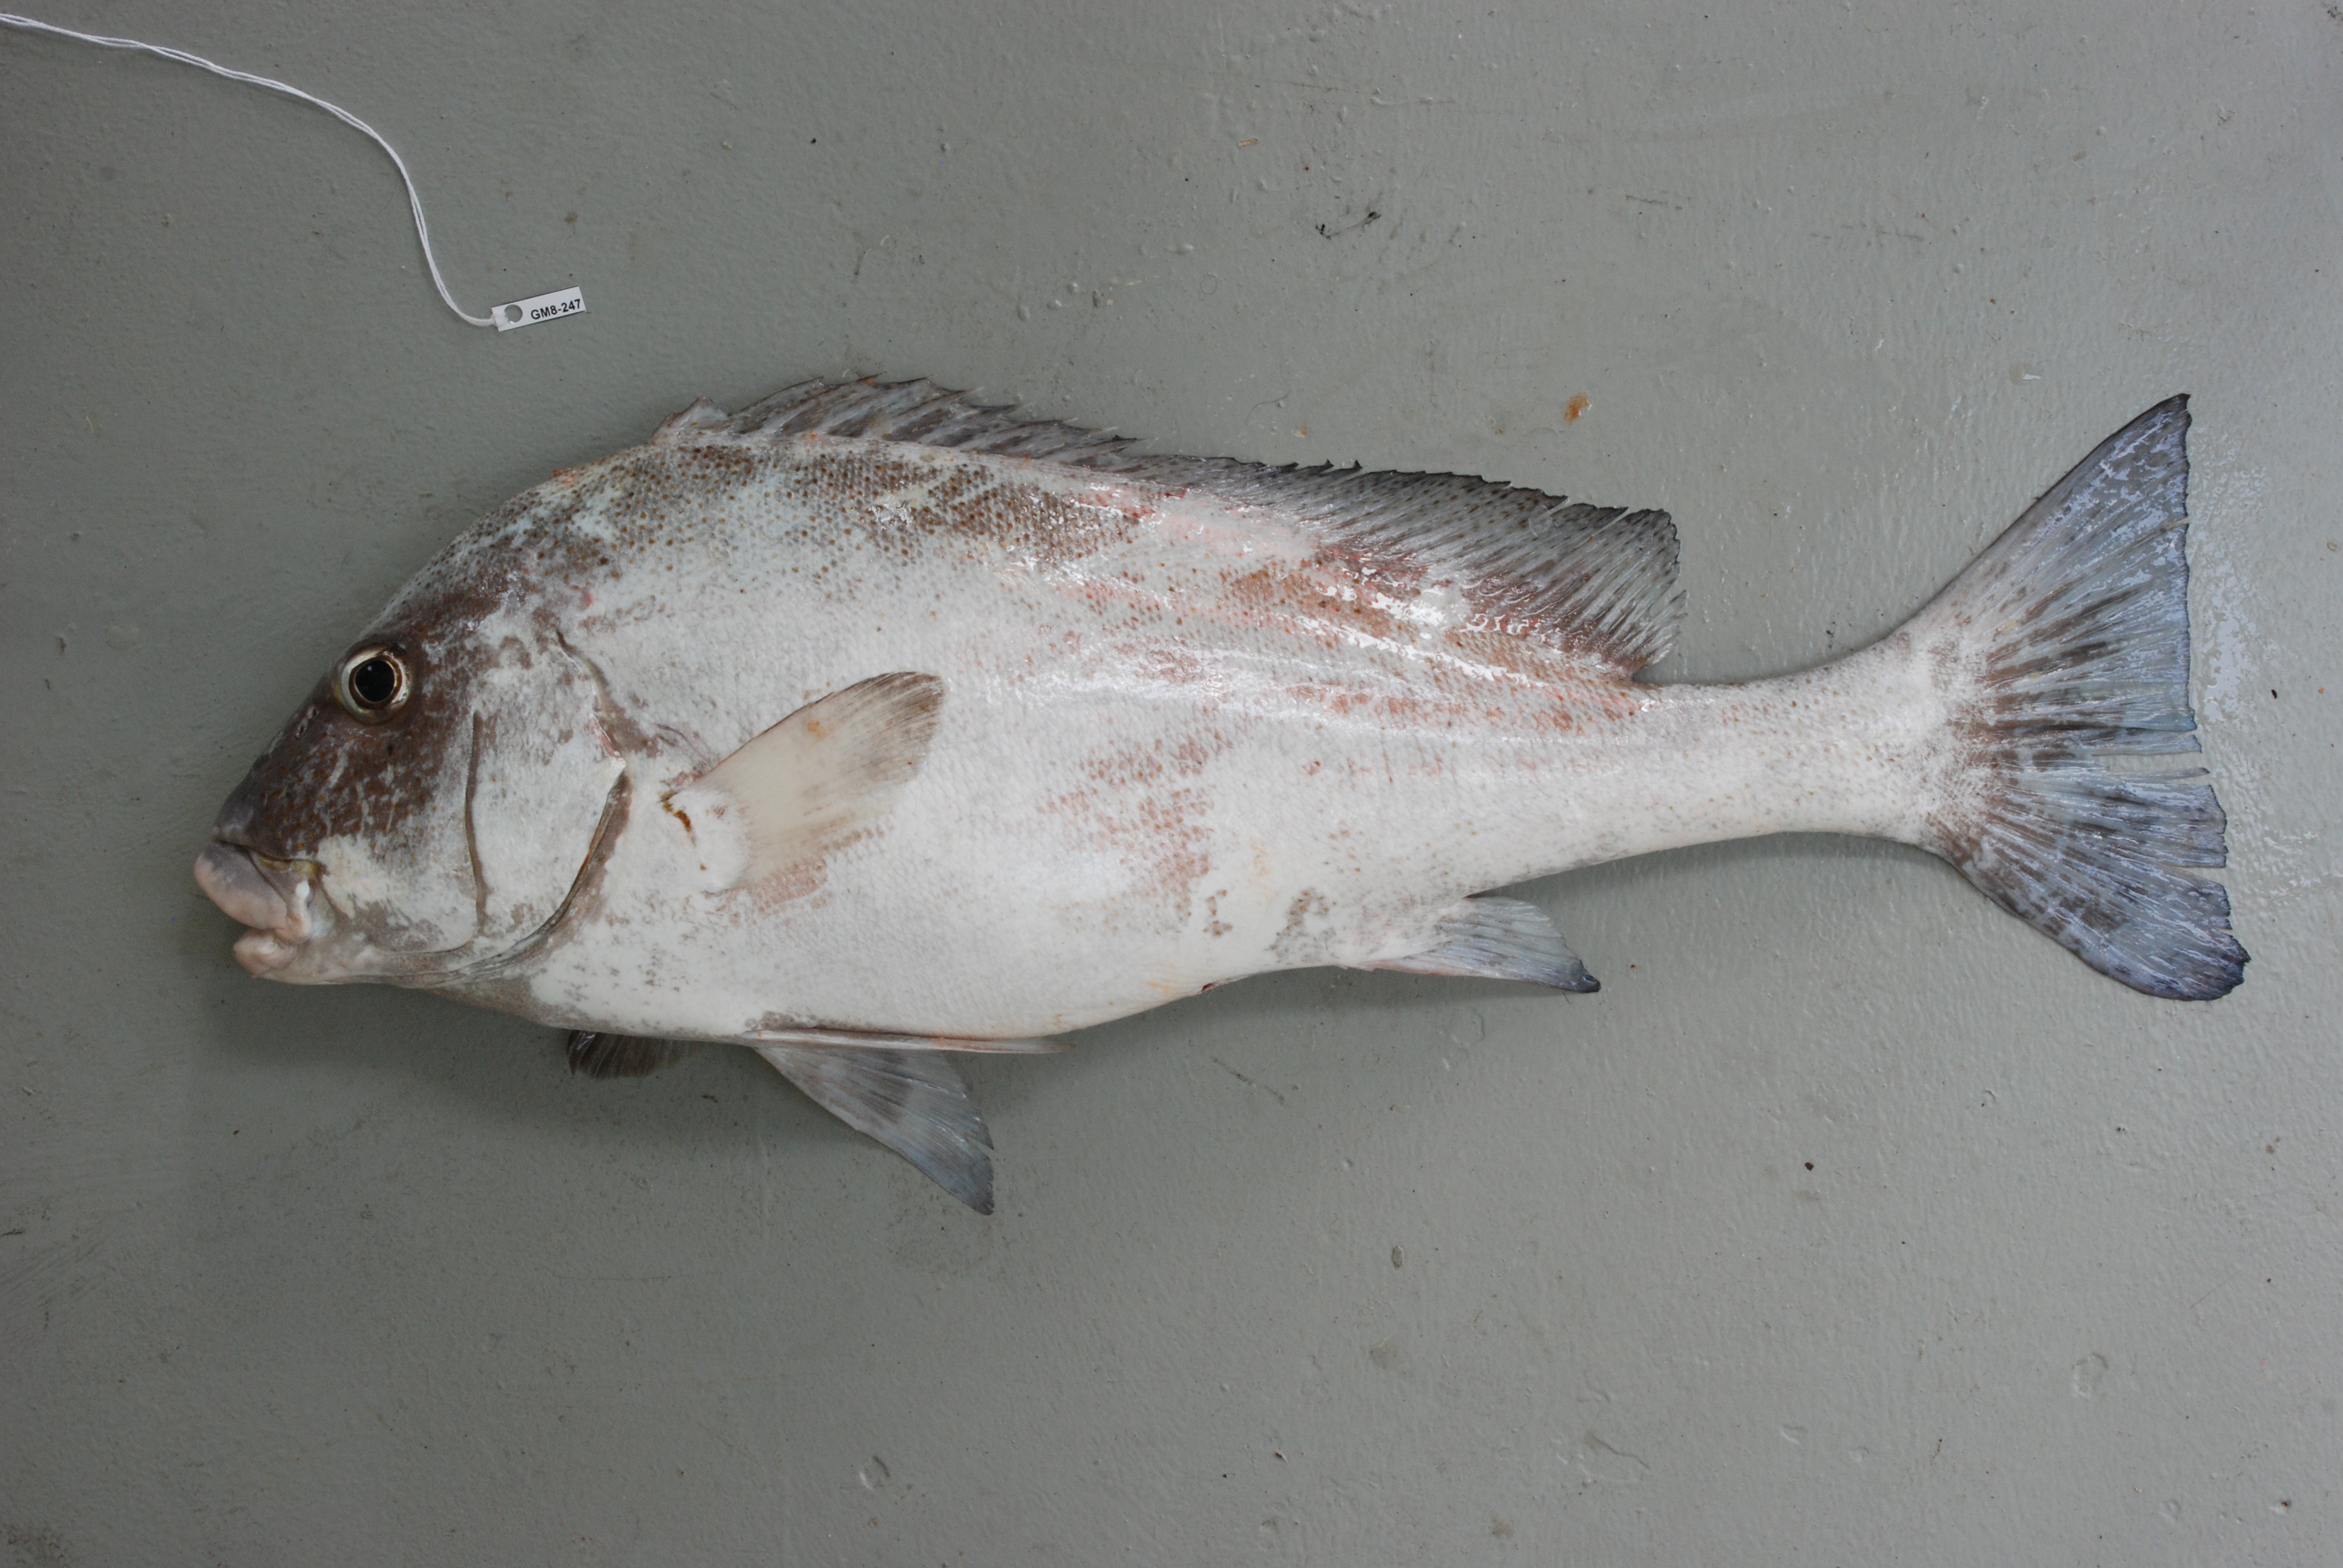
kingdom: Animalia
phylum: Chordata
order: Perciformes
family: Haemulidae
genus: Diagramma
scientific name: Diagramma centurio
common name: Sailfin rubberlip
